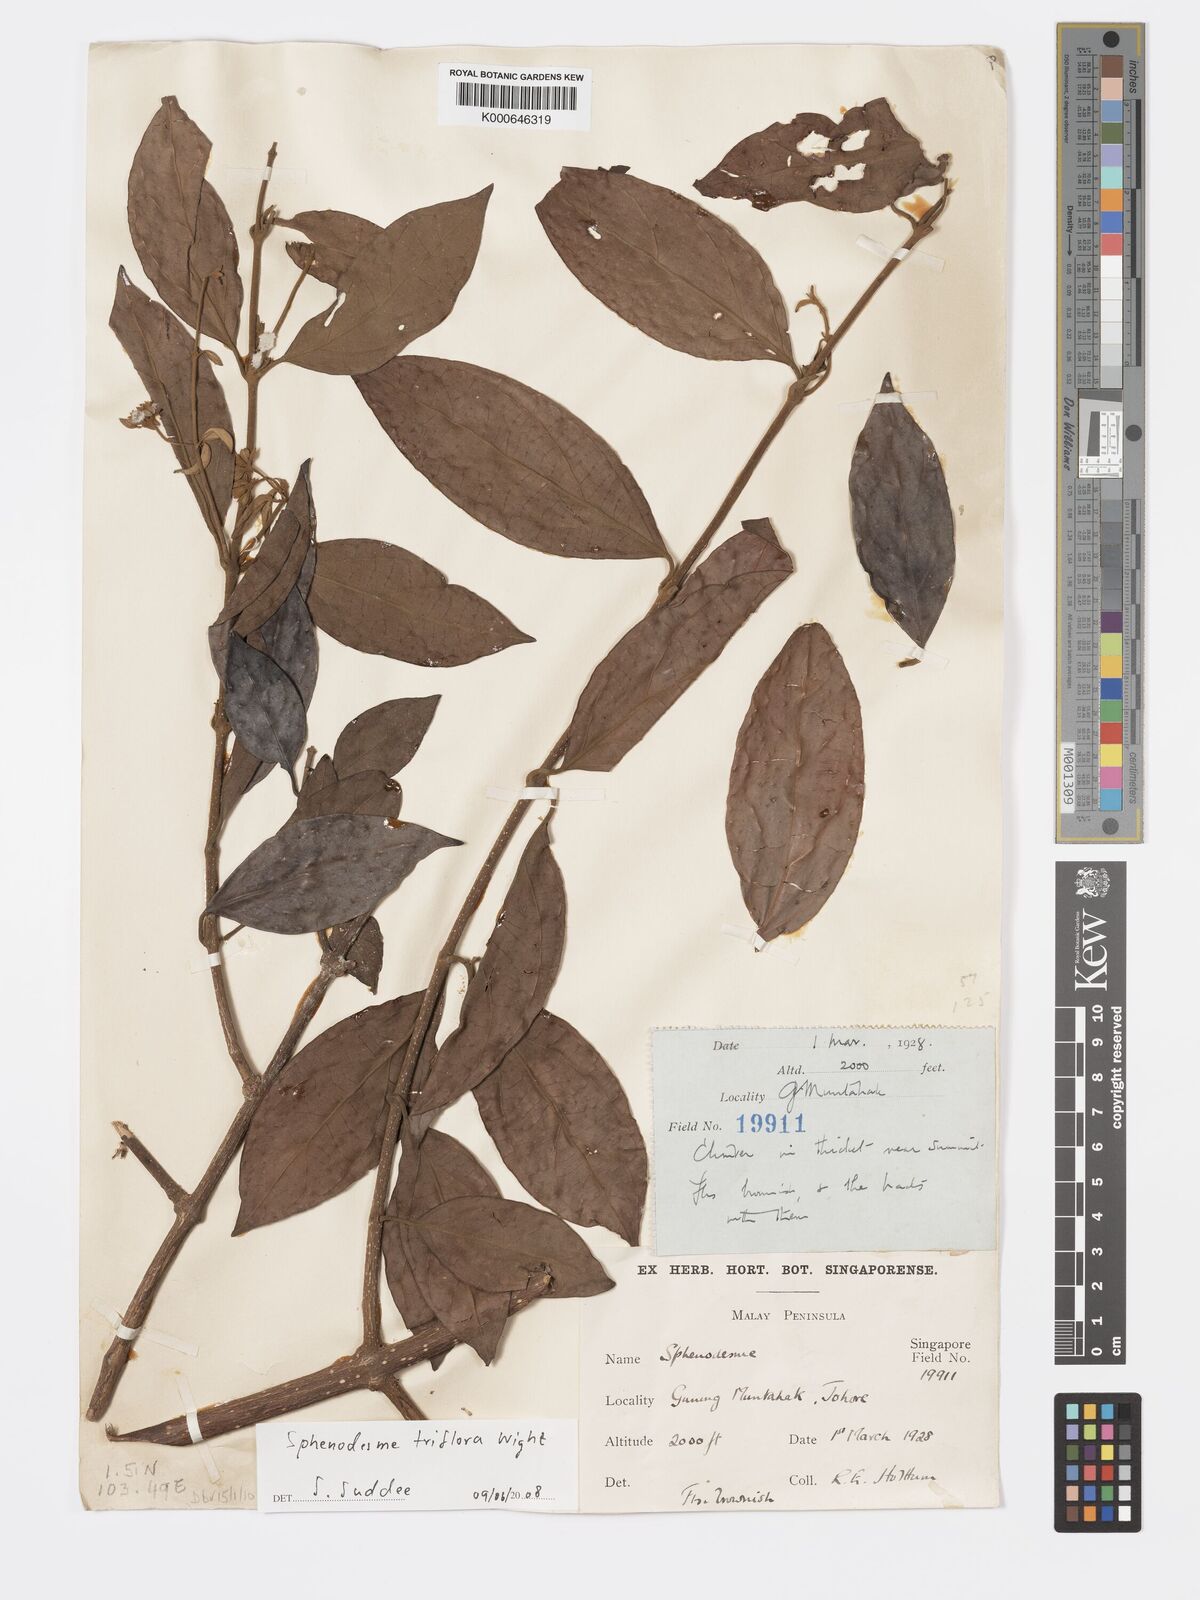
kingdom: Plantae
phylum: Tracheophyta
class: Magnoliopsida
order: Lamiales
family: Lamiaceae
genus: Sphenodesme
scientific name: Sphenodesme
